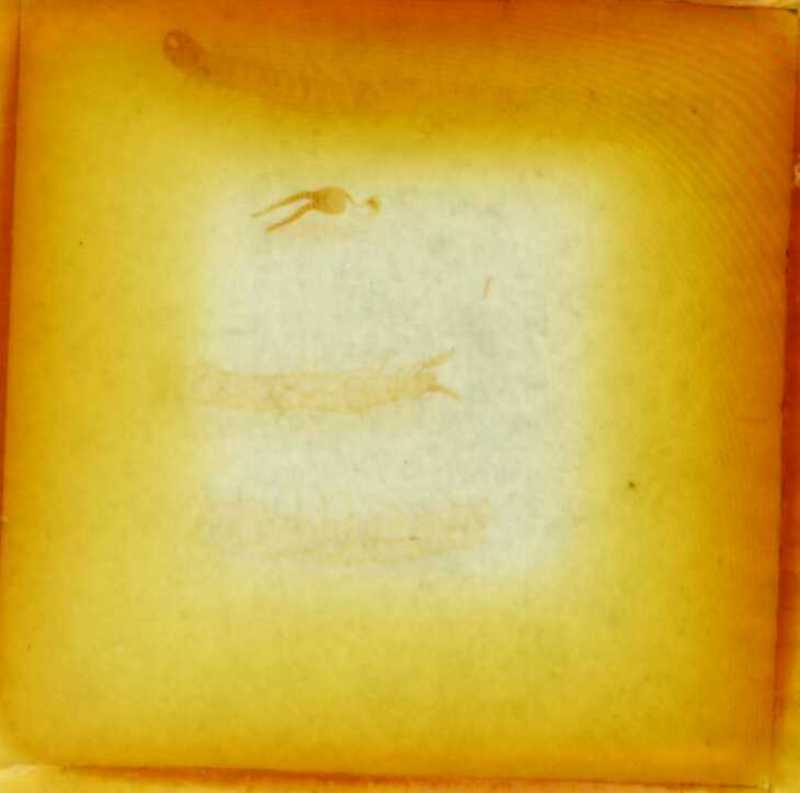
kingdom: Animalia
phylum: Arthropoda
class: Chilopoda
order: Geophilomorpha
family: Schendylidae
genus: Schendyla
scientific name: Schendyla carniolensis
